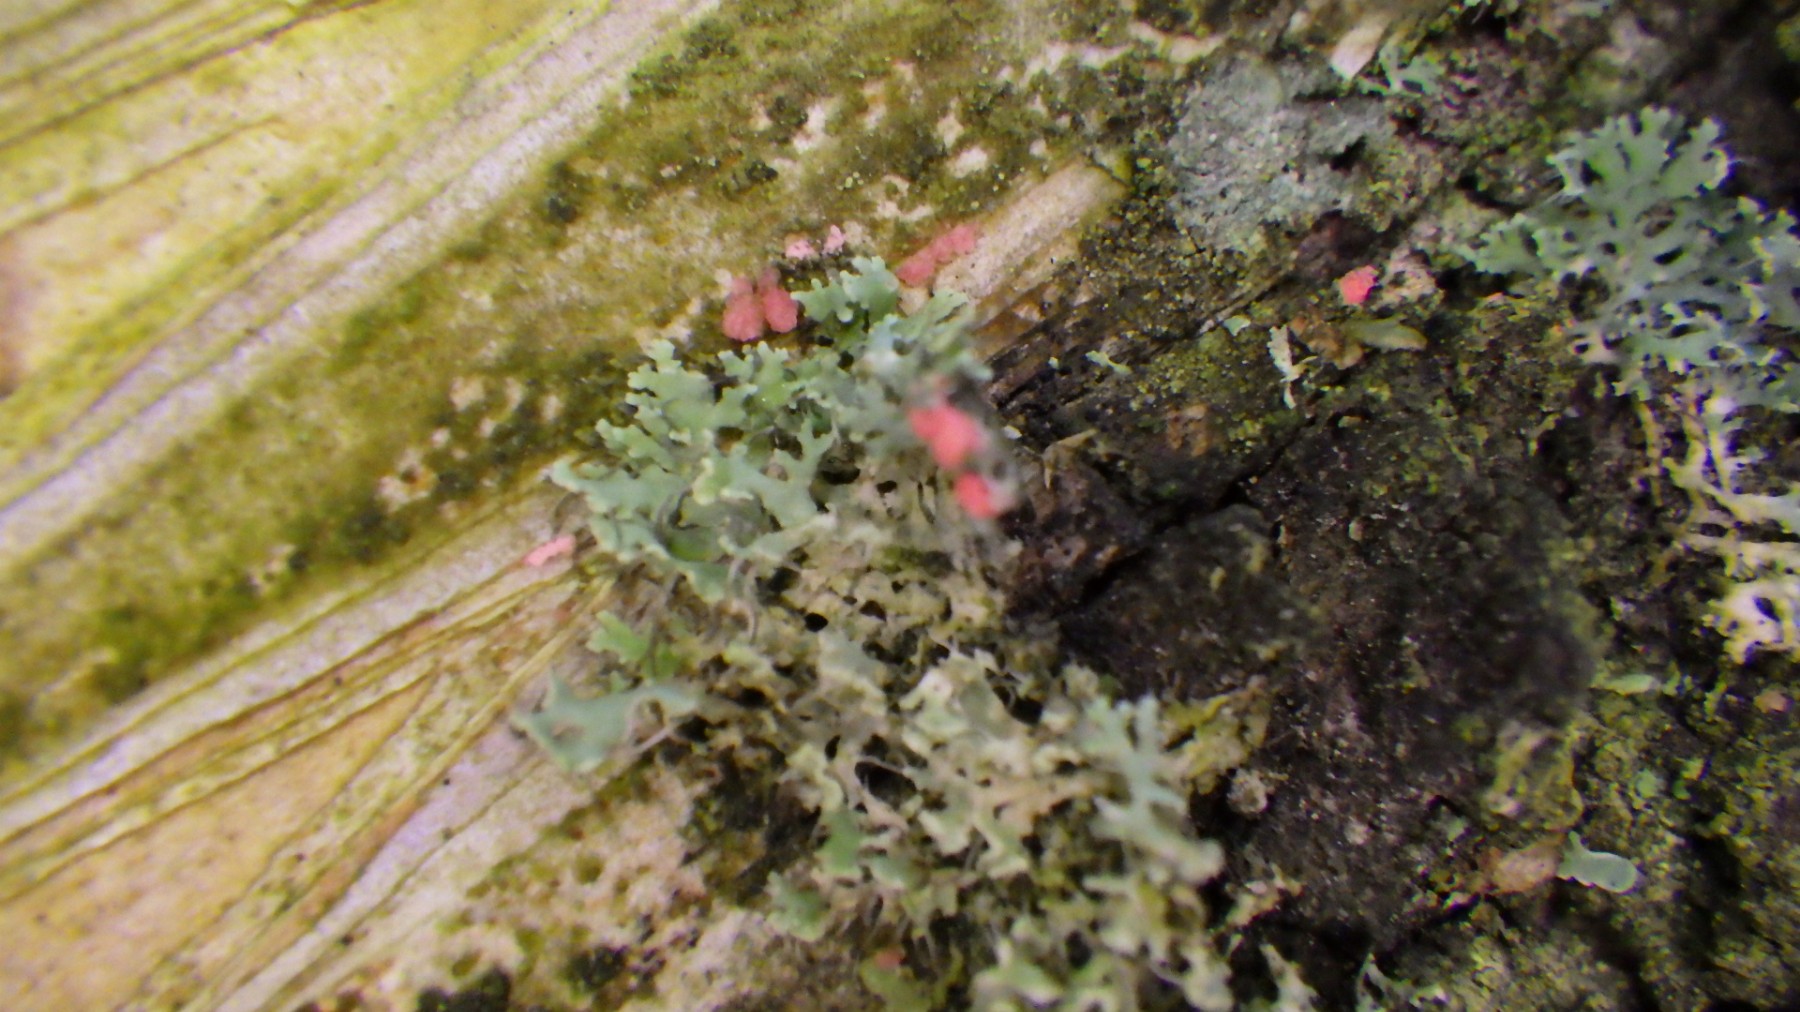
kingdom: Fungi
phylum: Ascomycota
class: Sordariomycetes
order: Hypocreales
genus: Illosporiopsis
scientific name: Illosporiopsis christiansenii
